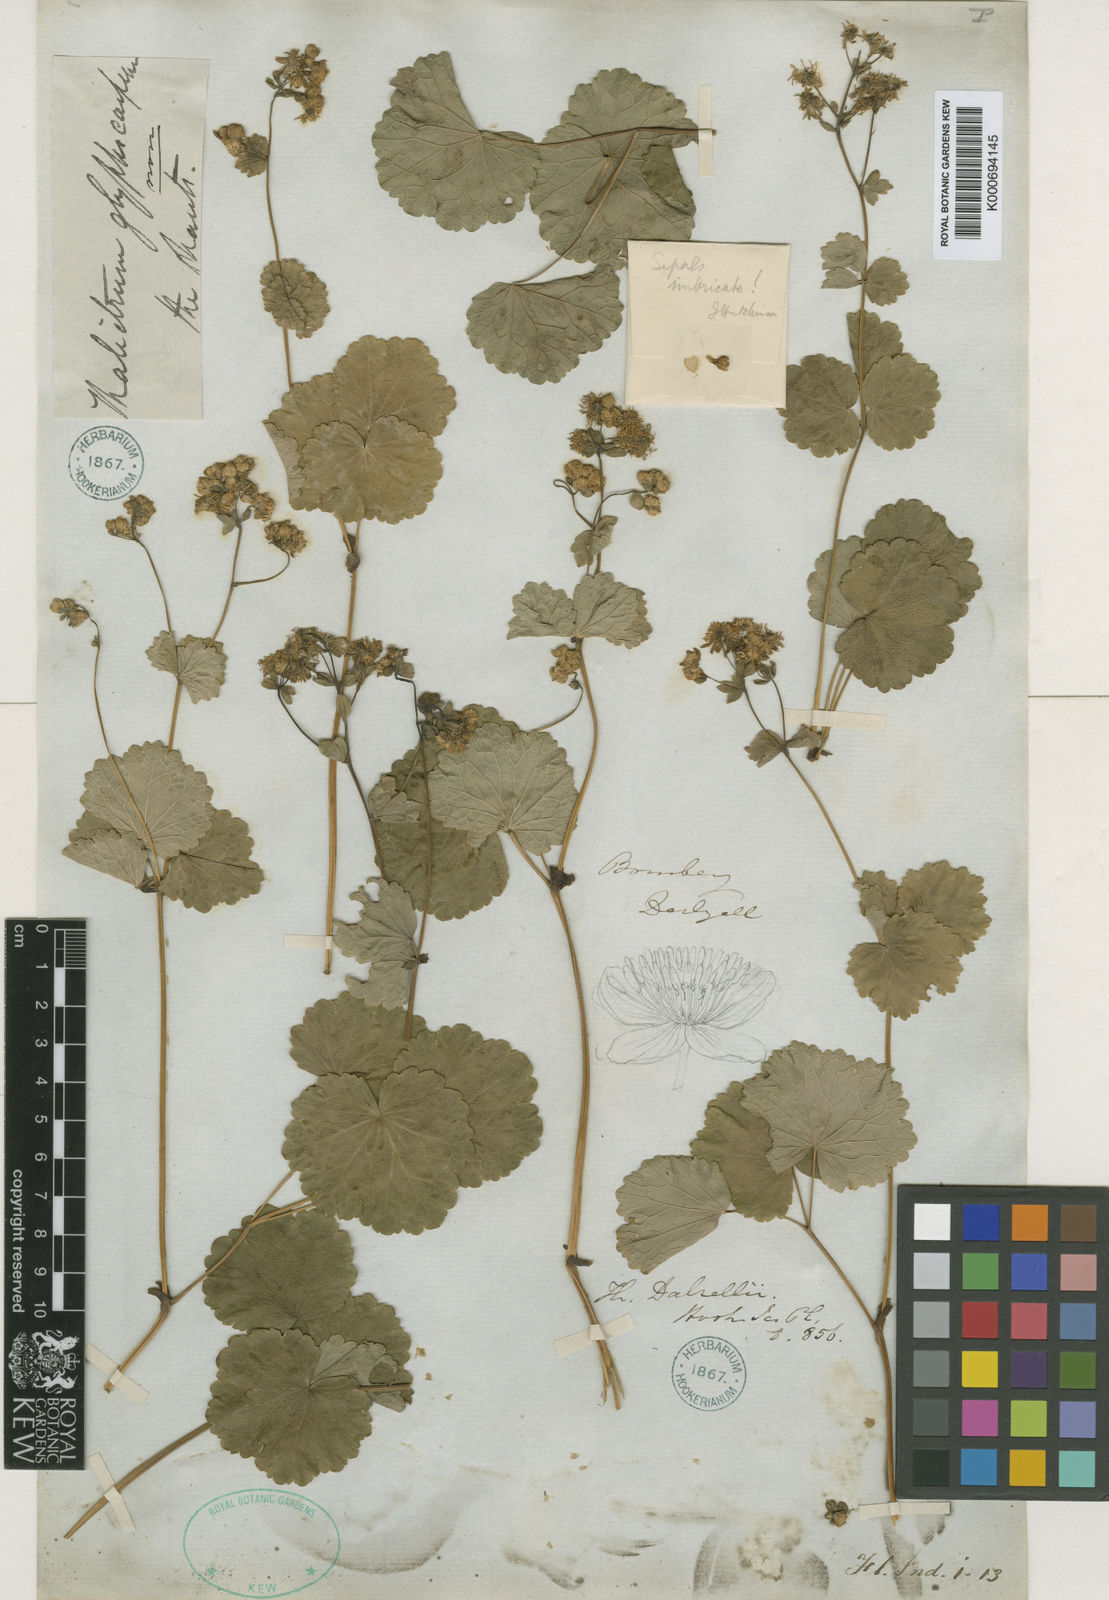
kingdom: Plantae
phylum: Tracheophyta
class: Magnoliopsida
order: Ranunculales
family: Ranunculaceae
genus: Thalictrum
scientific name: Thalictrum dalzellii
